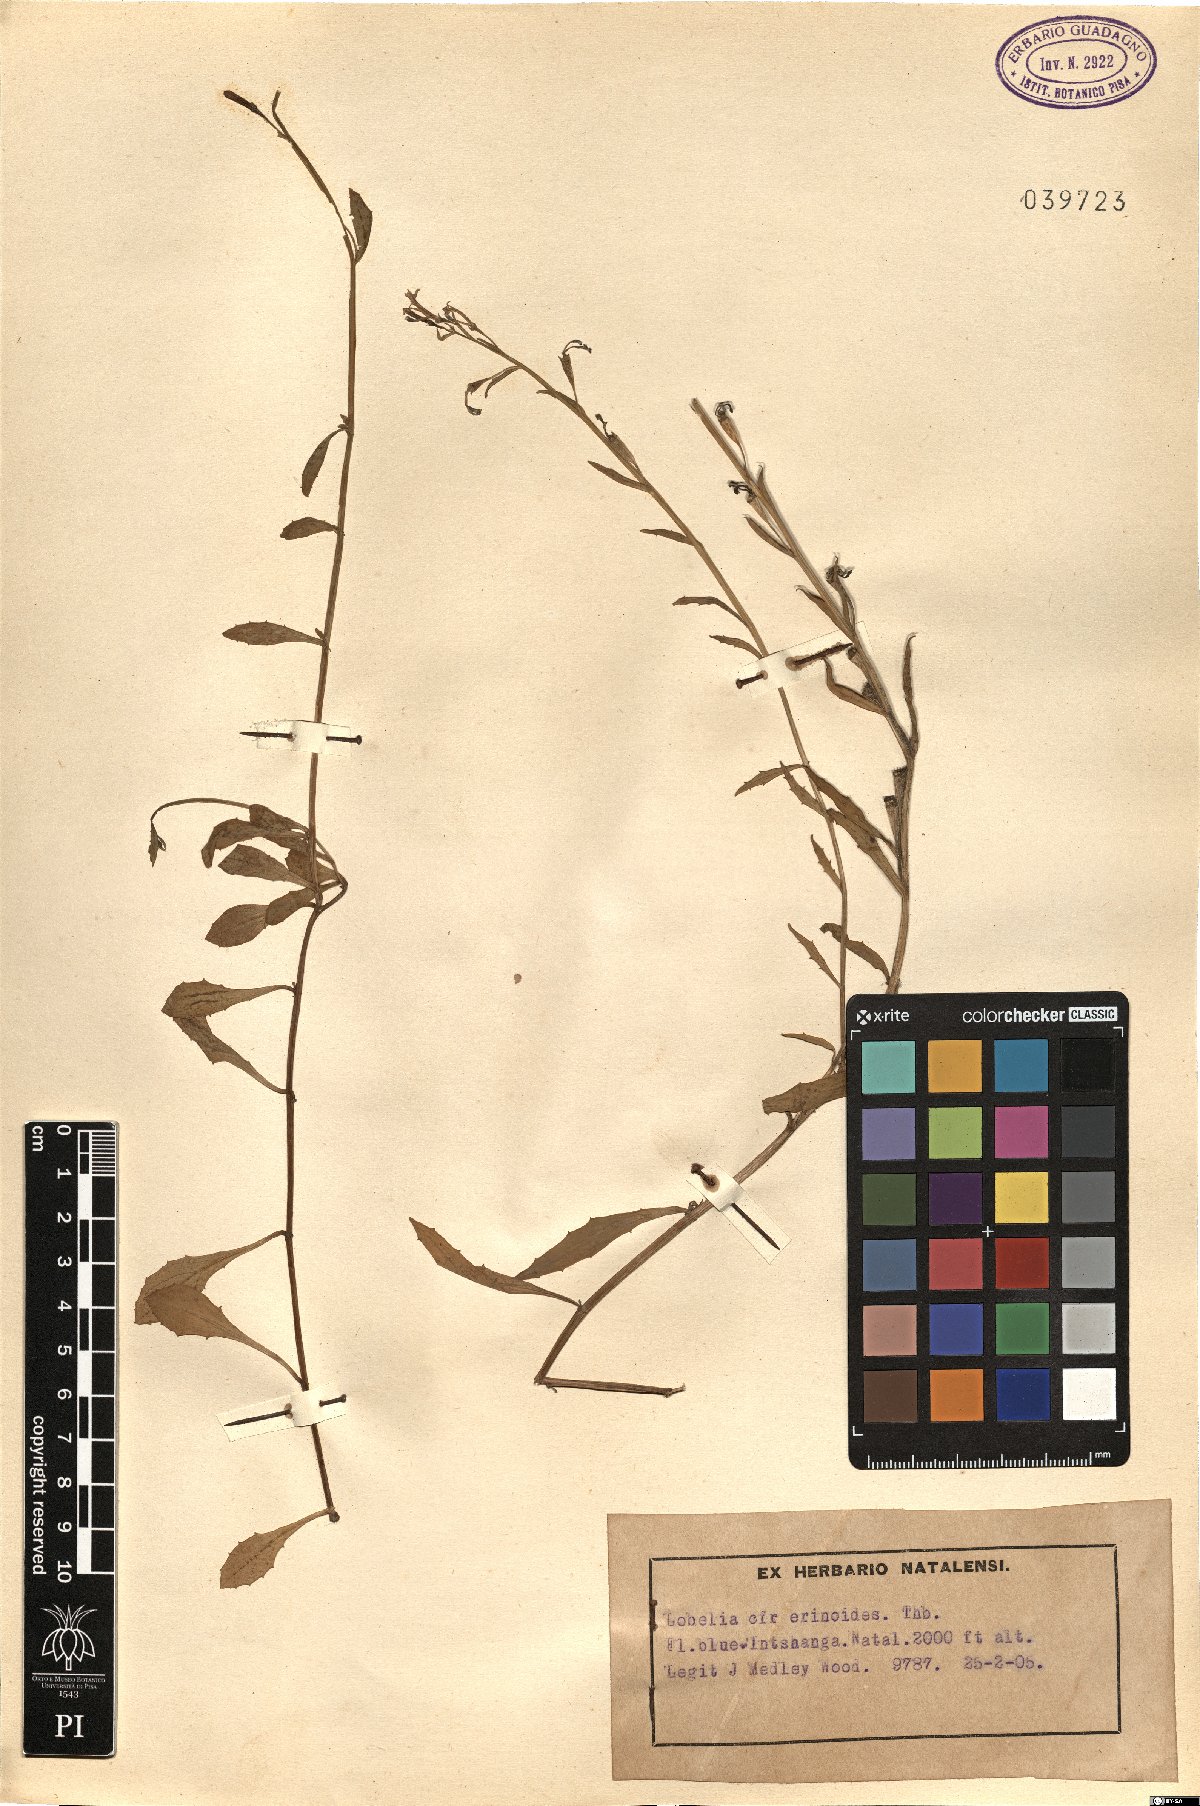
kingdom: Plantae
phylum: Tracheophyta
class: Magnoliopsida
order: Asterales
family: Campanulaceae
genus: Lobelia
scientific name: Lobelia erinus
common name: Edging lobelia
